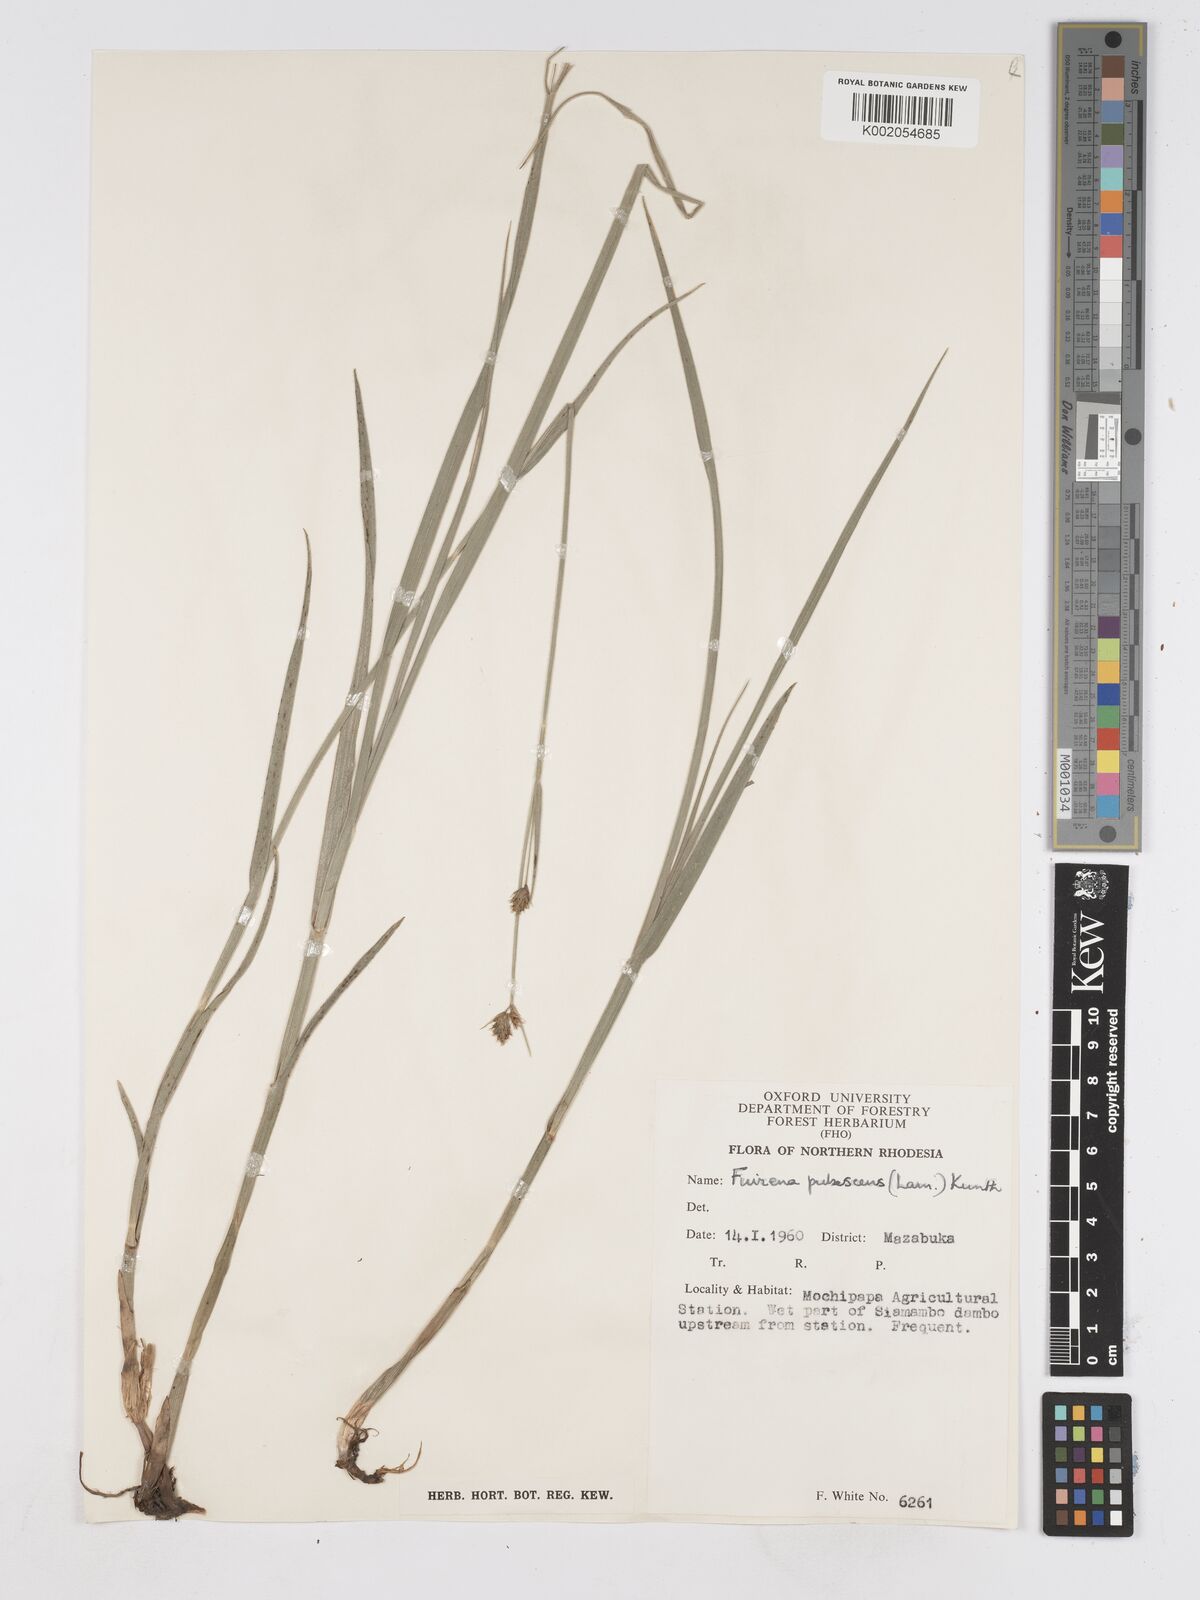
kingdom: Plantae
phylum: Tracheophyta
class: Liliopsida
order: Poales
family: Cyperaceae
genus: Fuirena
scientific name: Fuirena pachyrrhiza
